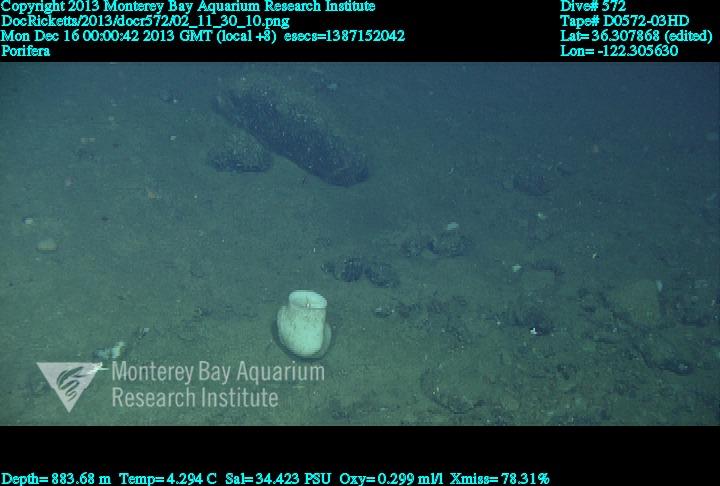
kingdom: Animalia
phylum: Porifera
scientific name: Porifera
